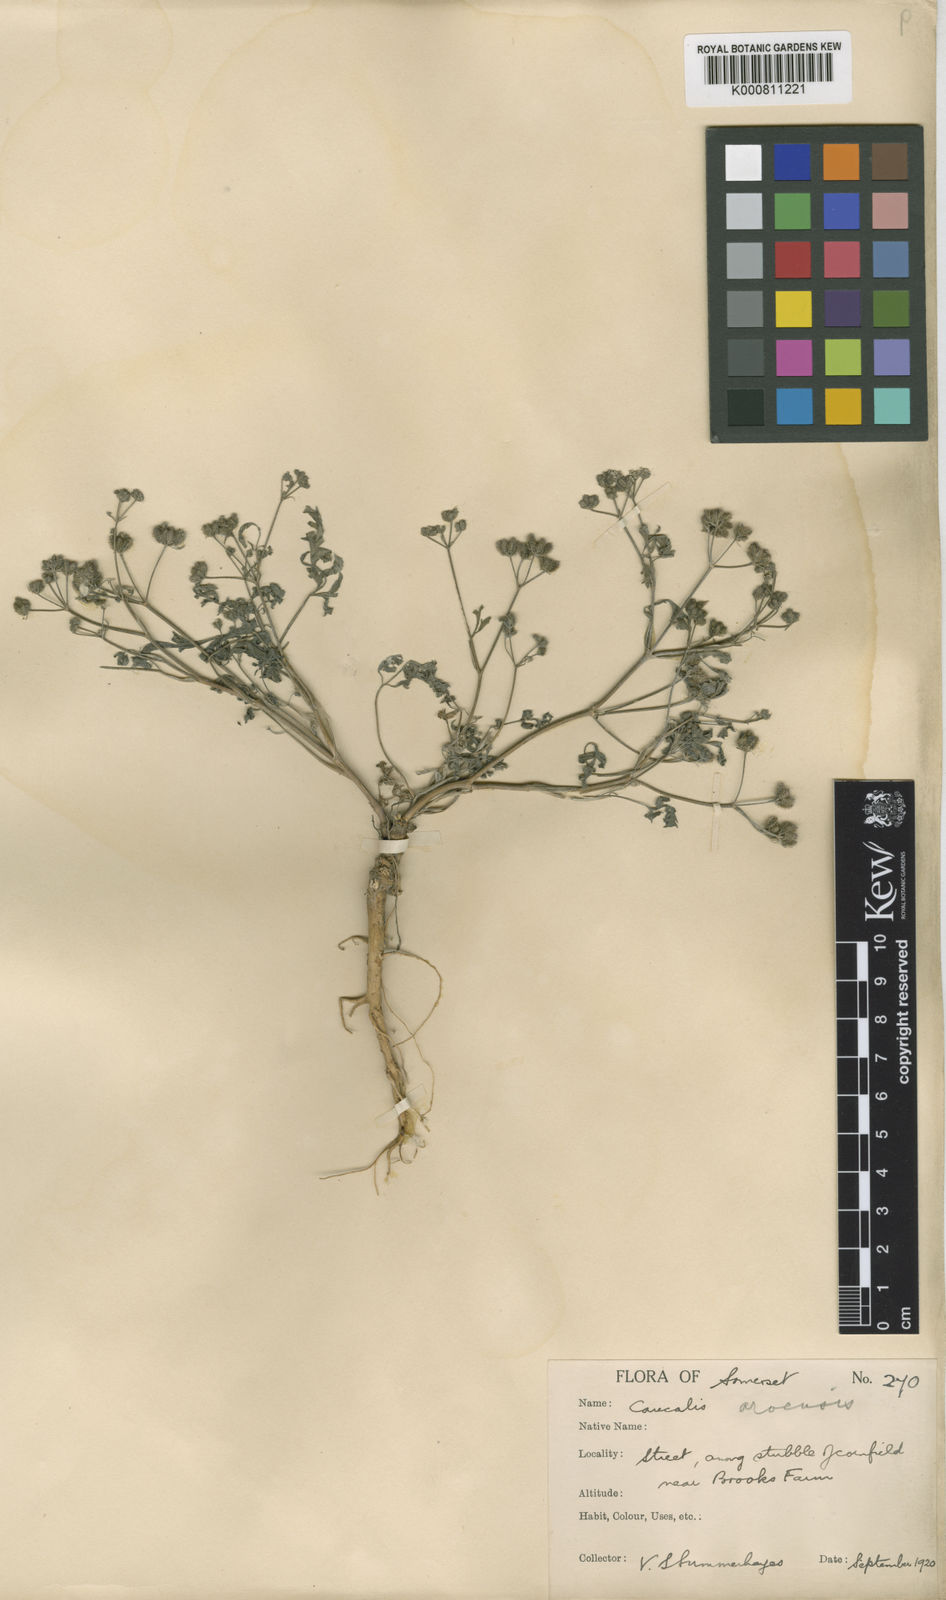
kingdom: Plantae
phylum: Tracheophyta
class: Magnoliopsida
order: Apiales
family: Apiaceae
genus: Torilis
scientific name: Torilis arvensis
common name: Spreading hedge-parsley
